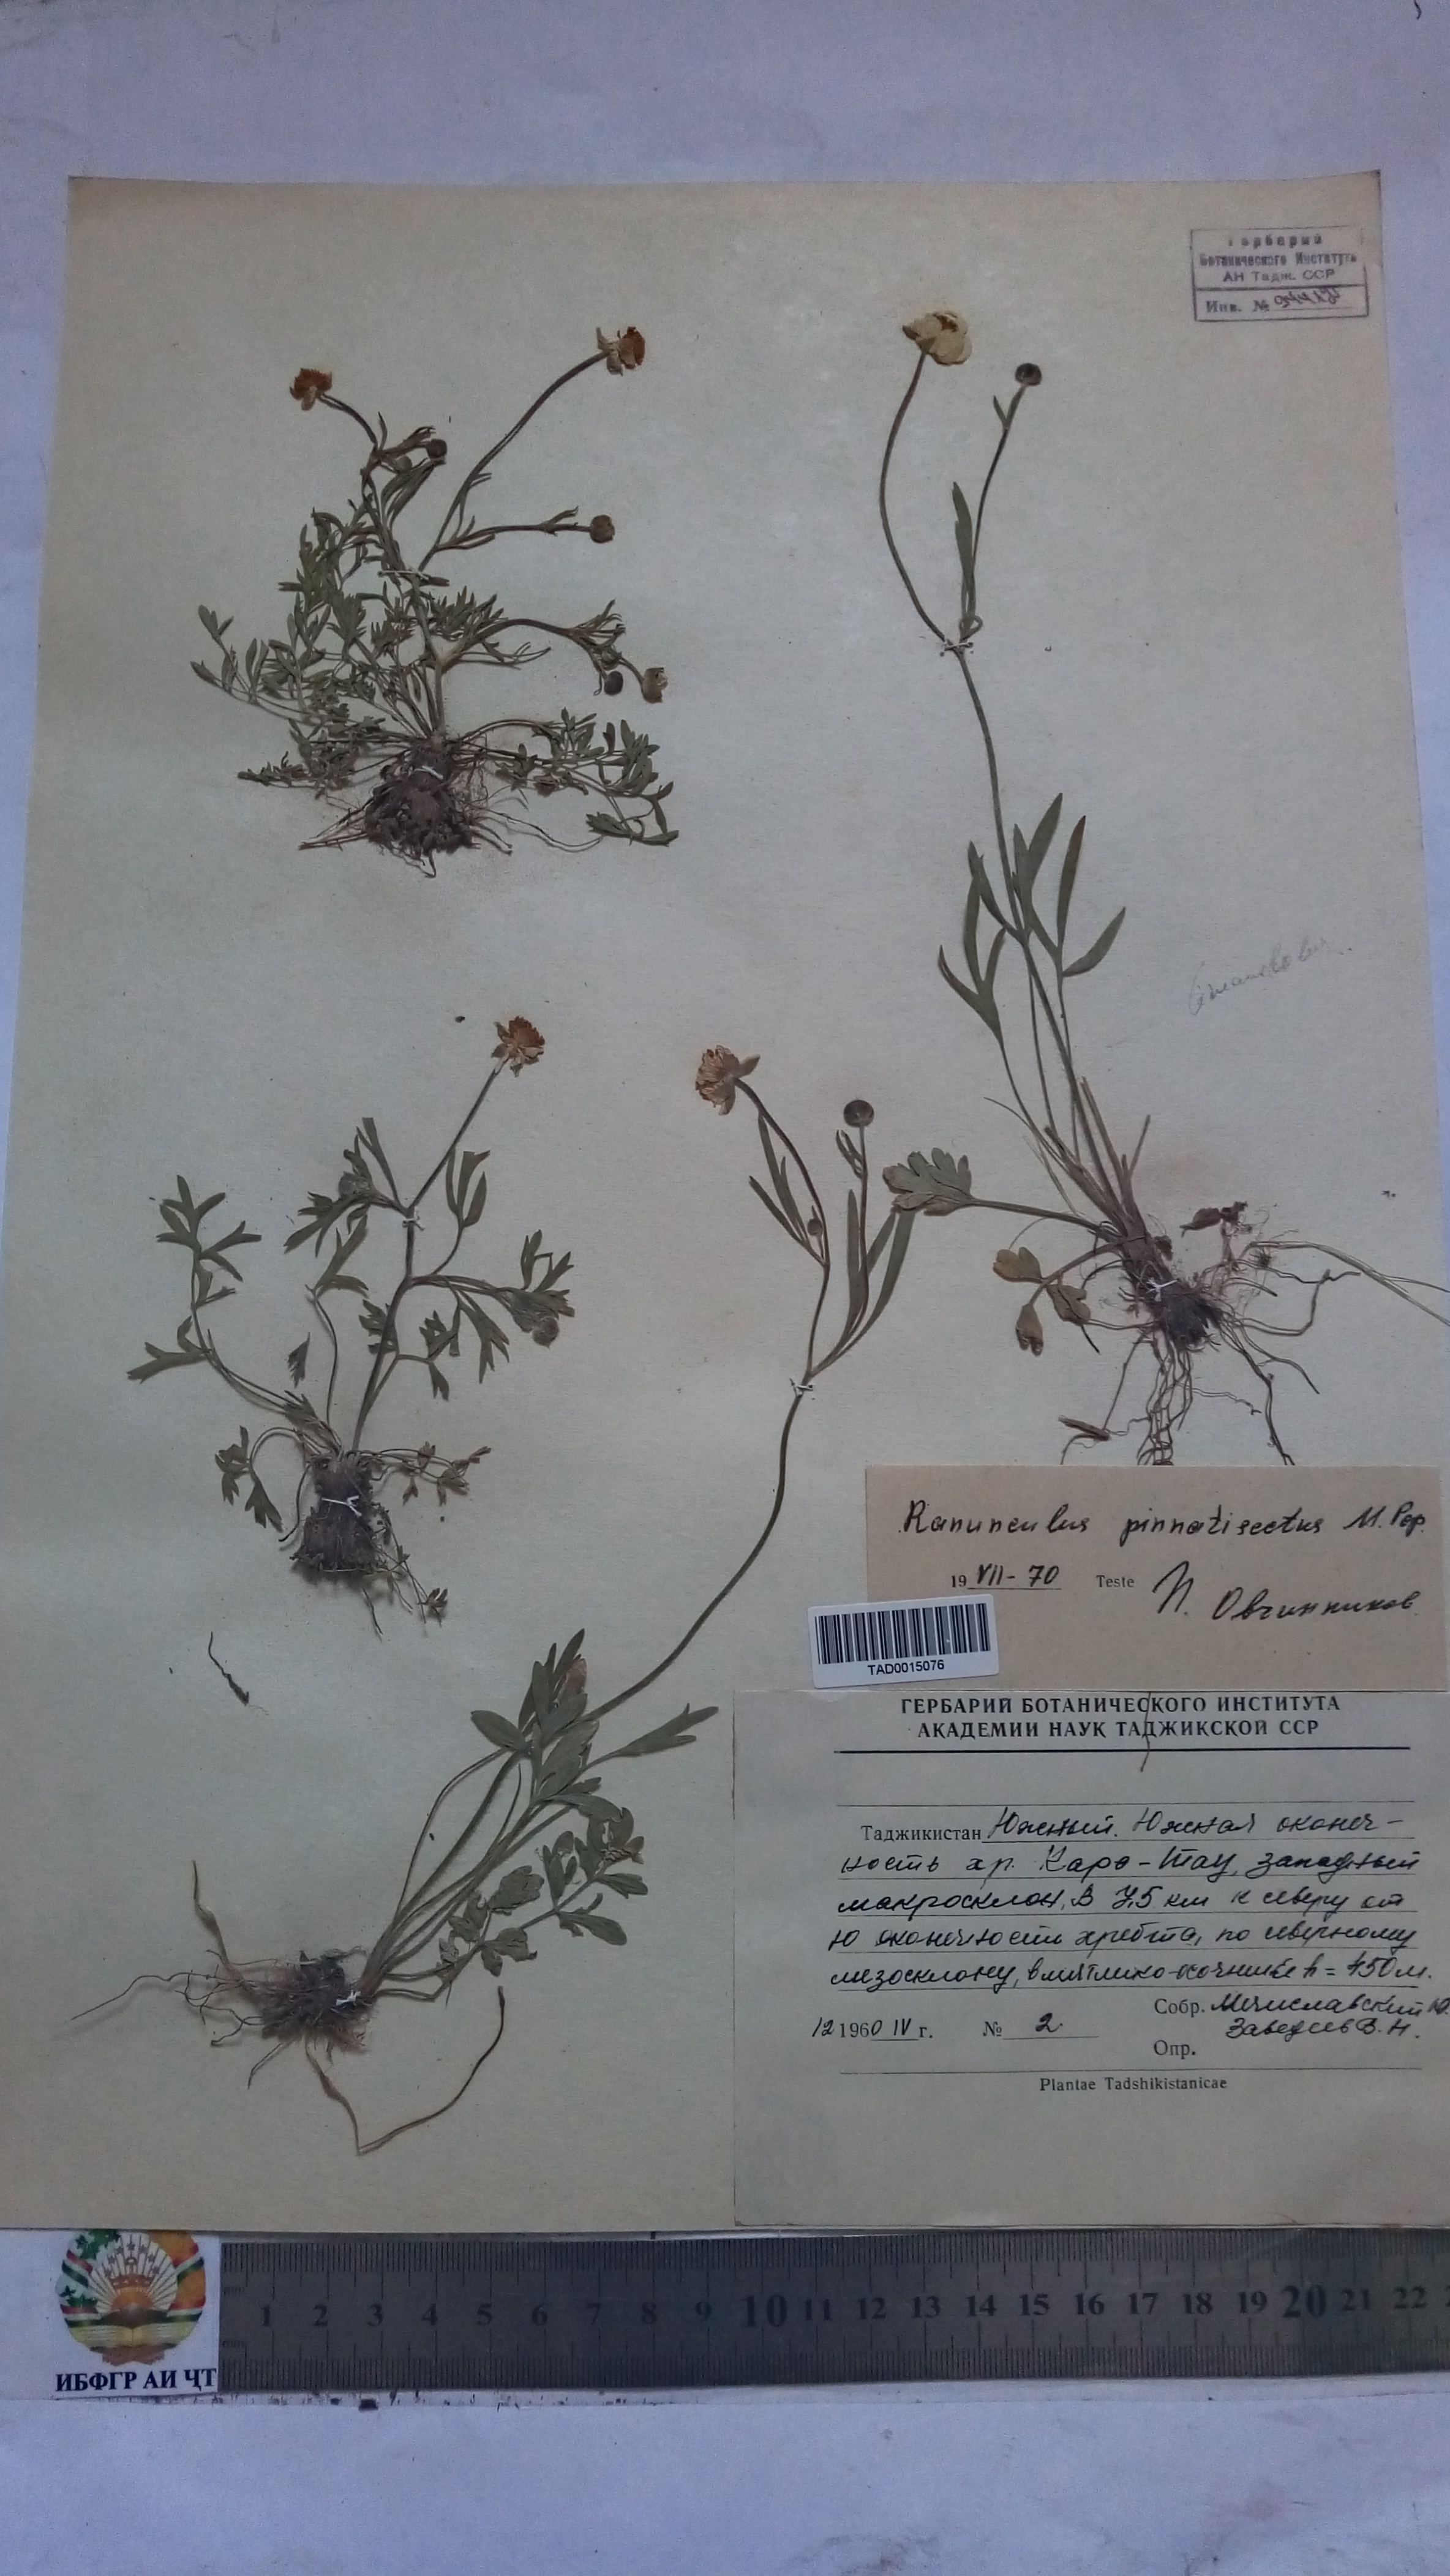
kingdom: Plantae
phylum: Tracheophyta
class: Magnoliopsida
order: Ranunculales
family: Ranunculaceae
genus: Ranunculus
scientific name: Ranunculus pinnatisectus
